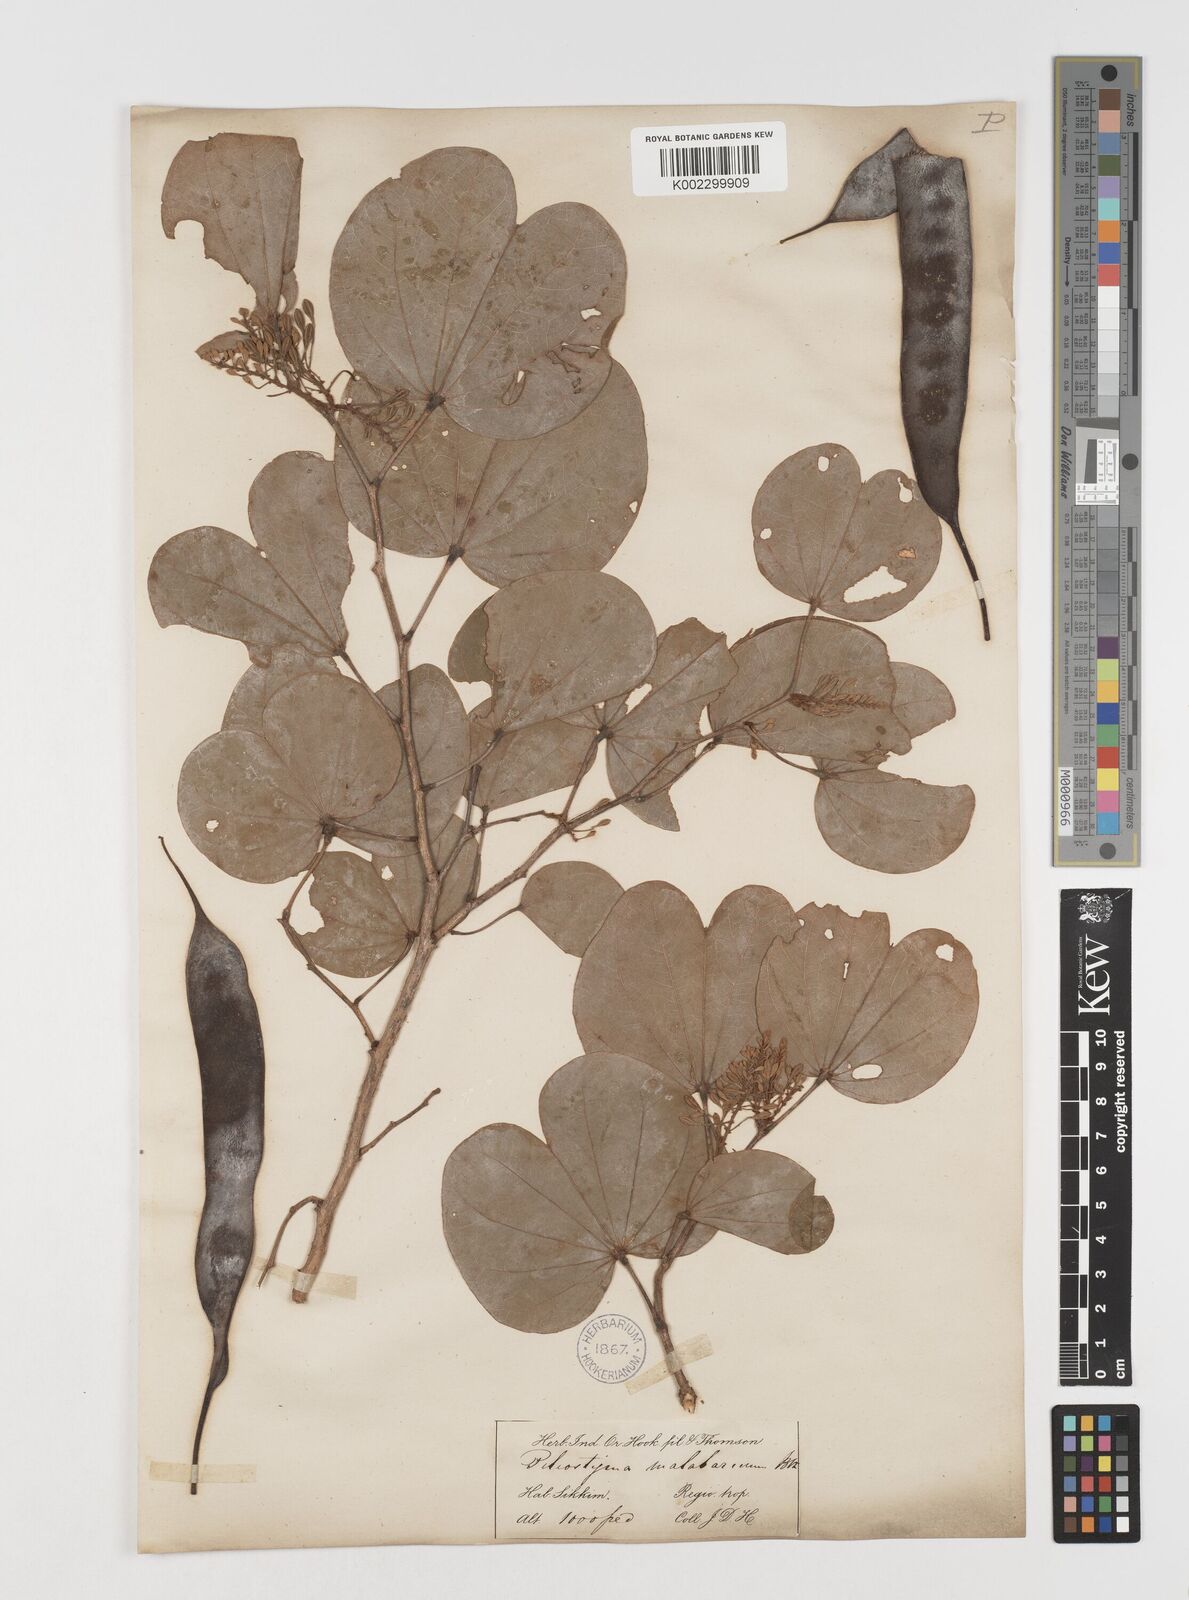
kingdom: Plantae
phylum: Tracheophyta
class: Magnoliopsida
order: Fabales
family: Fabaceae
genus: Piliostigma
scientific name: Piliostigma malabaricum
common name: Malabar bauhinia
